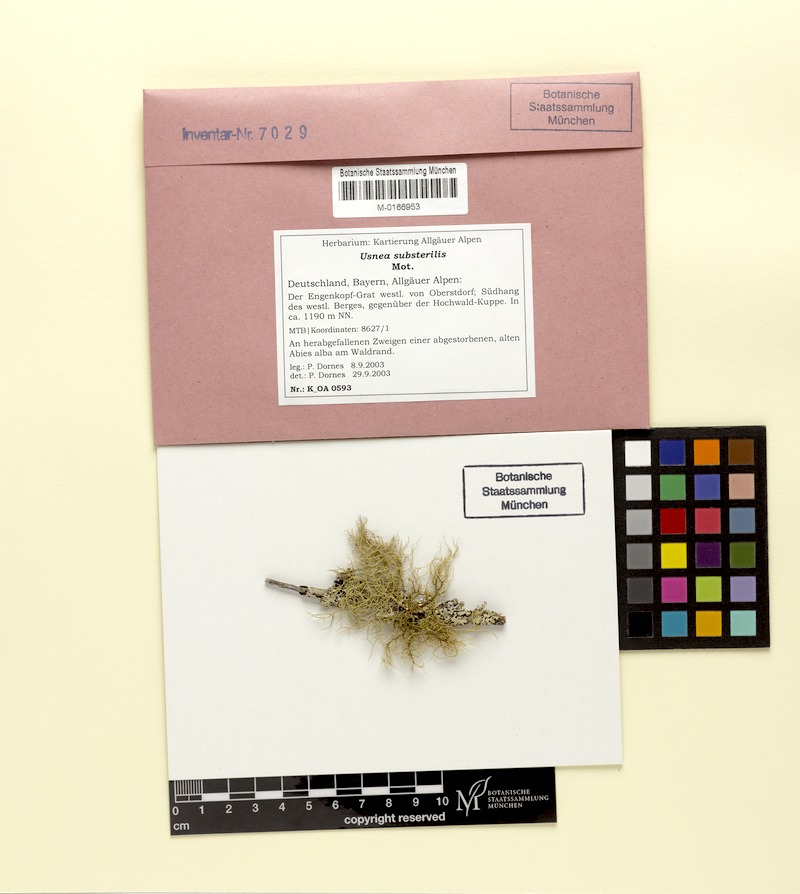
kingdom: Fungi
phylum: Ascomycota
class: Lecanoromycetes
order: Lecanorales
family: Parmeliaceae
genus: Usnea
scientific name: Usnea substerilis
